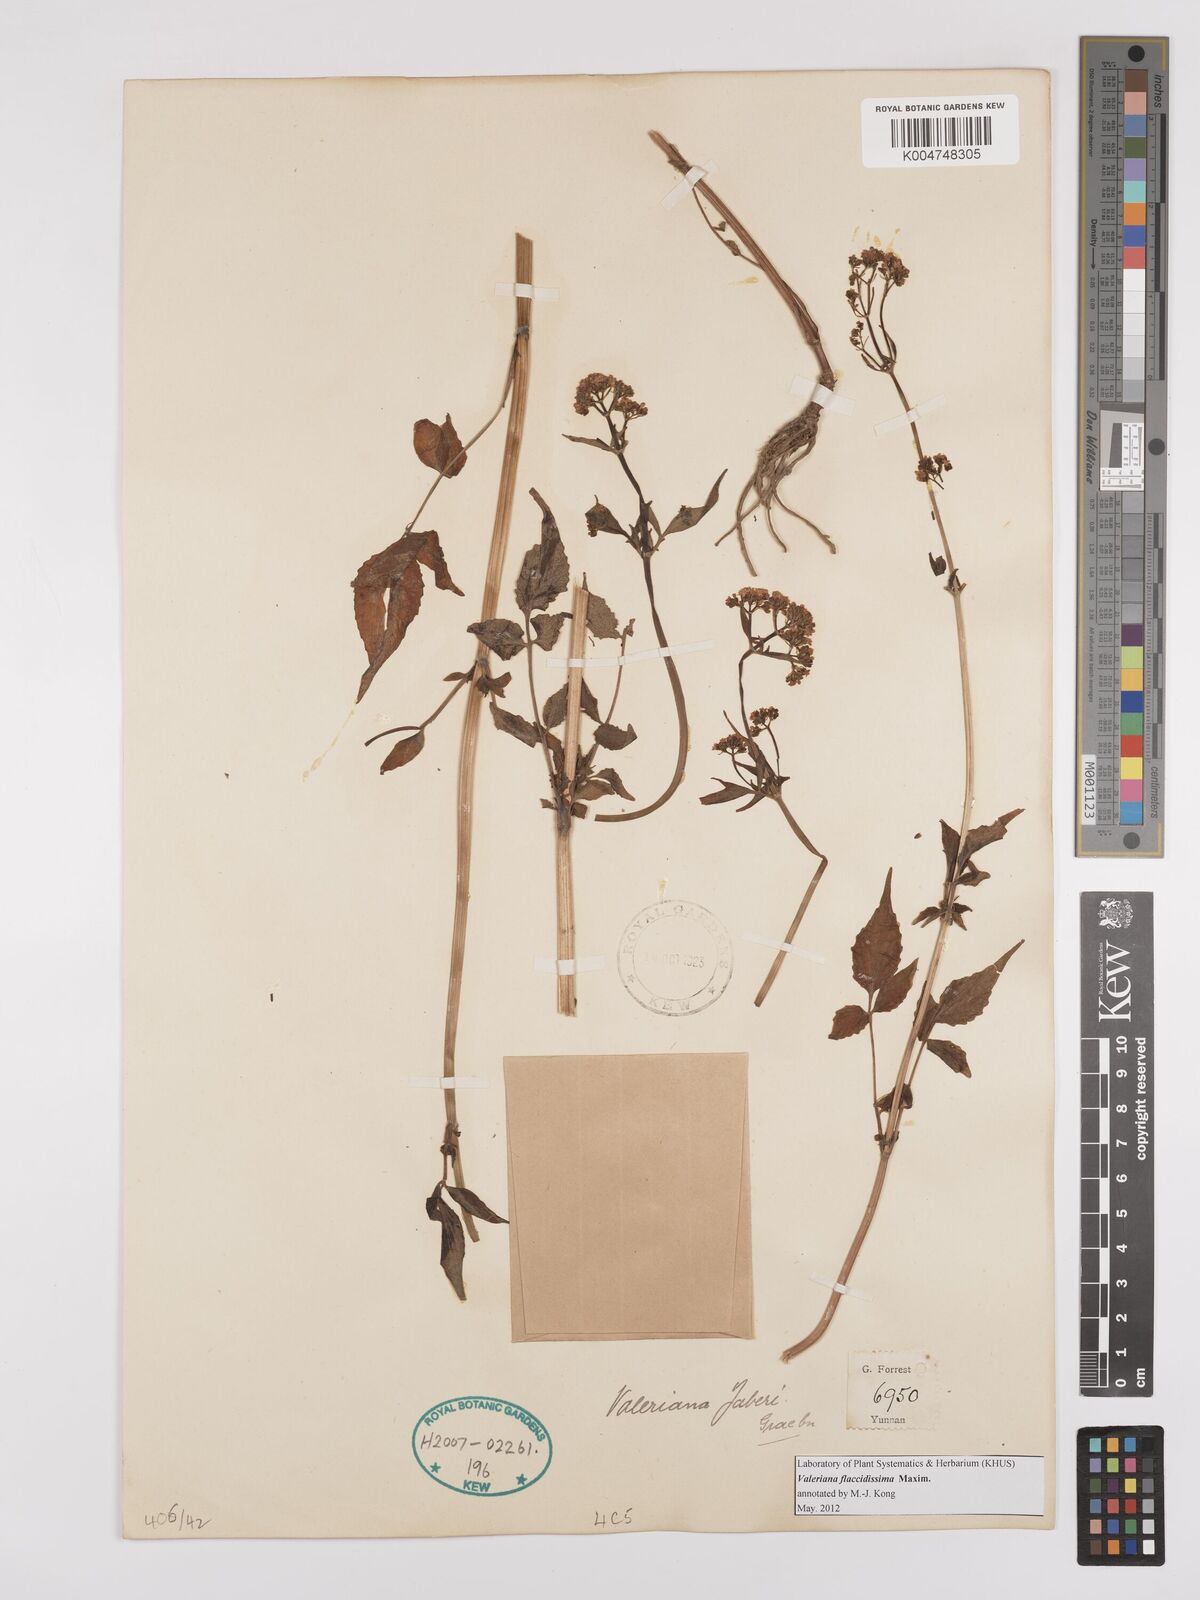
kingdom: Plantae
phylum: Tracheophyta
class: Magnoliopsida
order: Dipsacales
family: Caprifoliaceae
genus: Valeriana
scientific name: Valeriana flaccidissima
